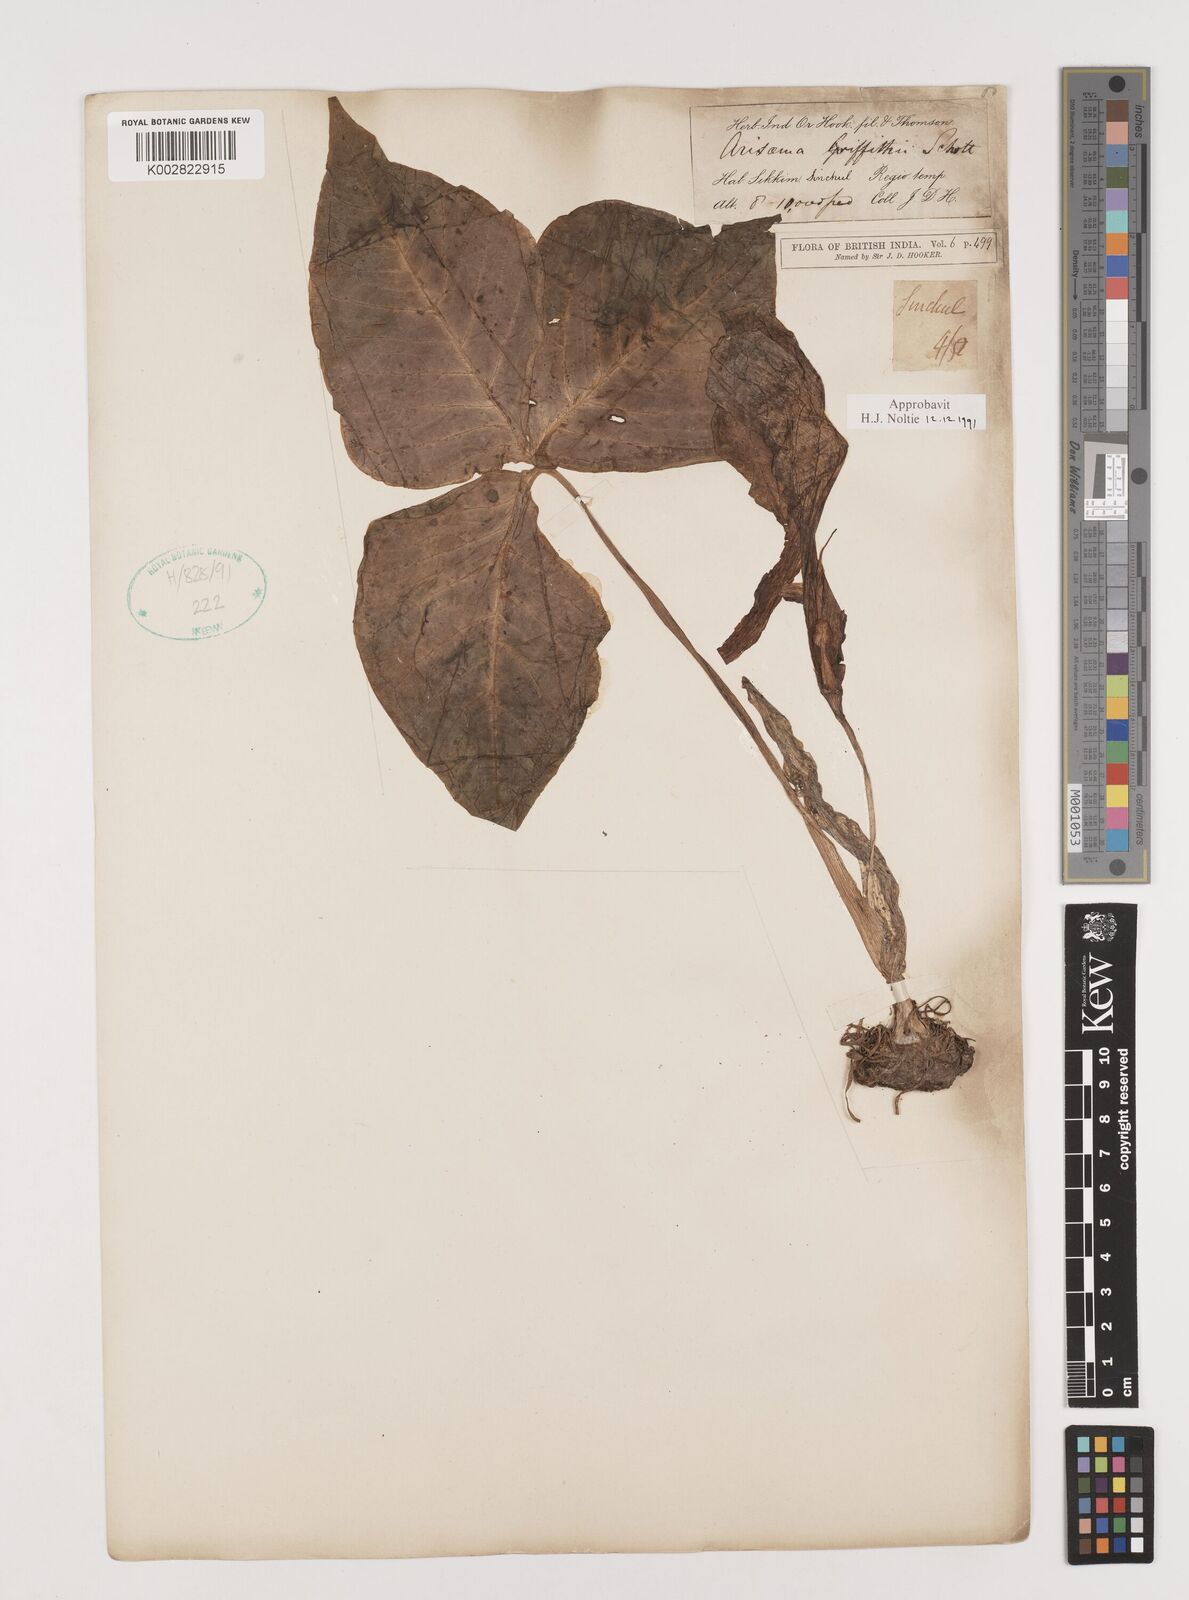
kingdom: Plantae
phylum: Tracheophyta
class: Liliopsida
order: Alismatales
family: Araceae
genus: Arisaema
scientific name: Arisaema griffithii
